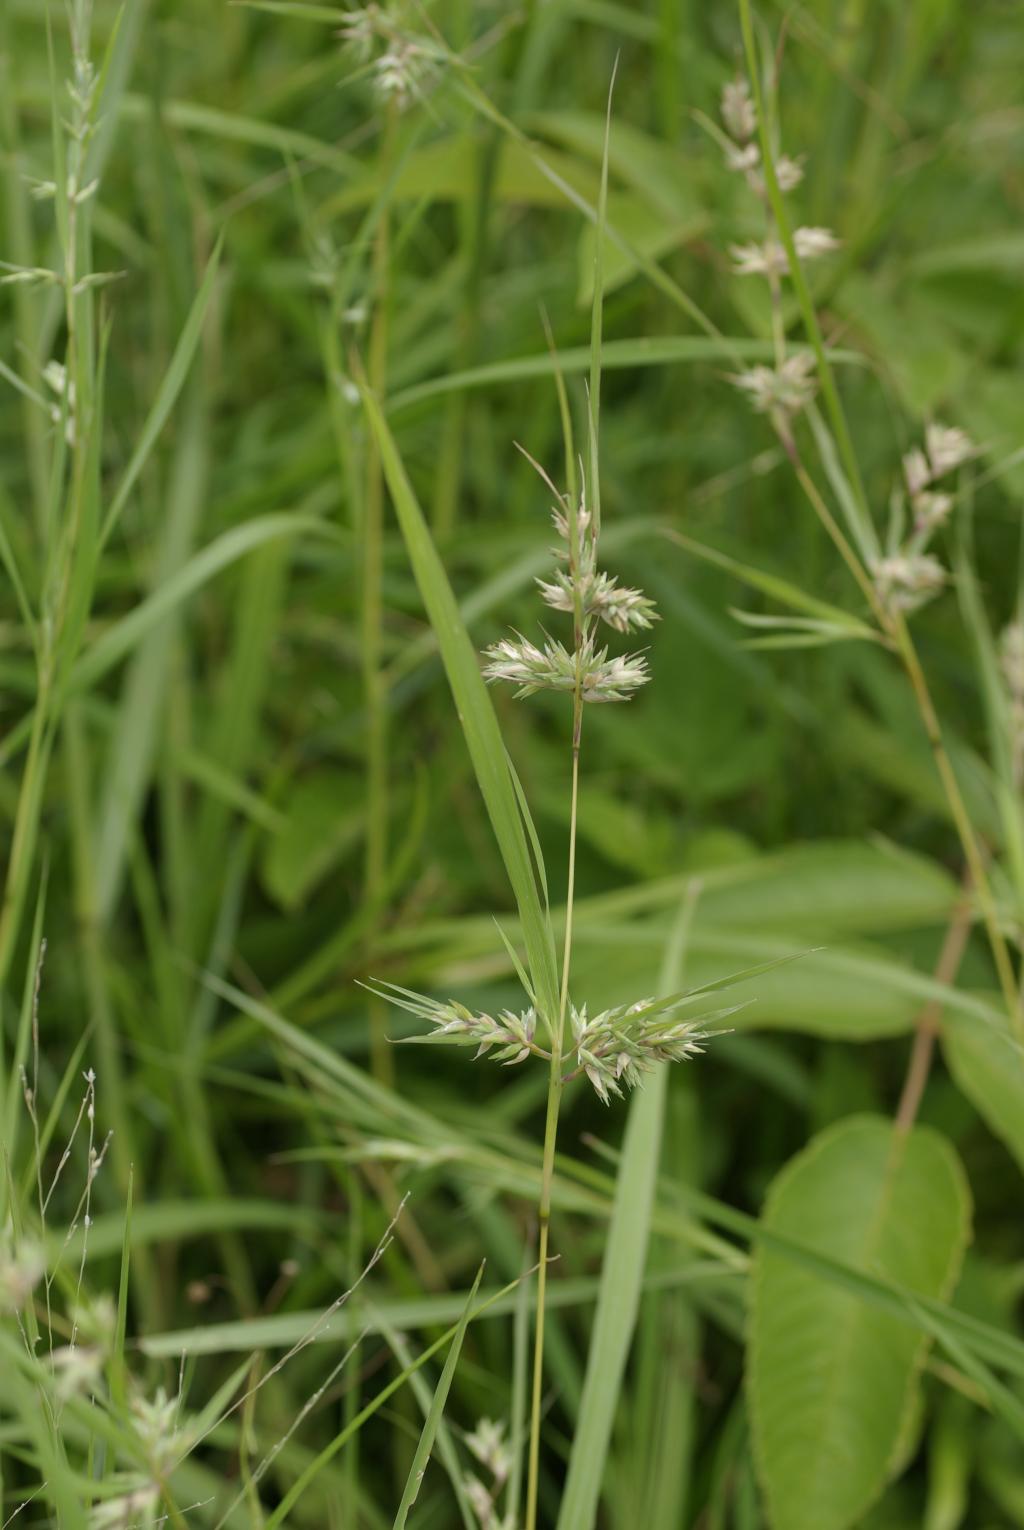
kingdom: Plantae
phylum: Tracheophyta
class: Liliopsida
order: Poales
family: Poaceae
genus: Apluda
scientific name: Apluda mutica
